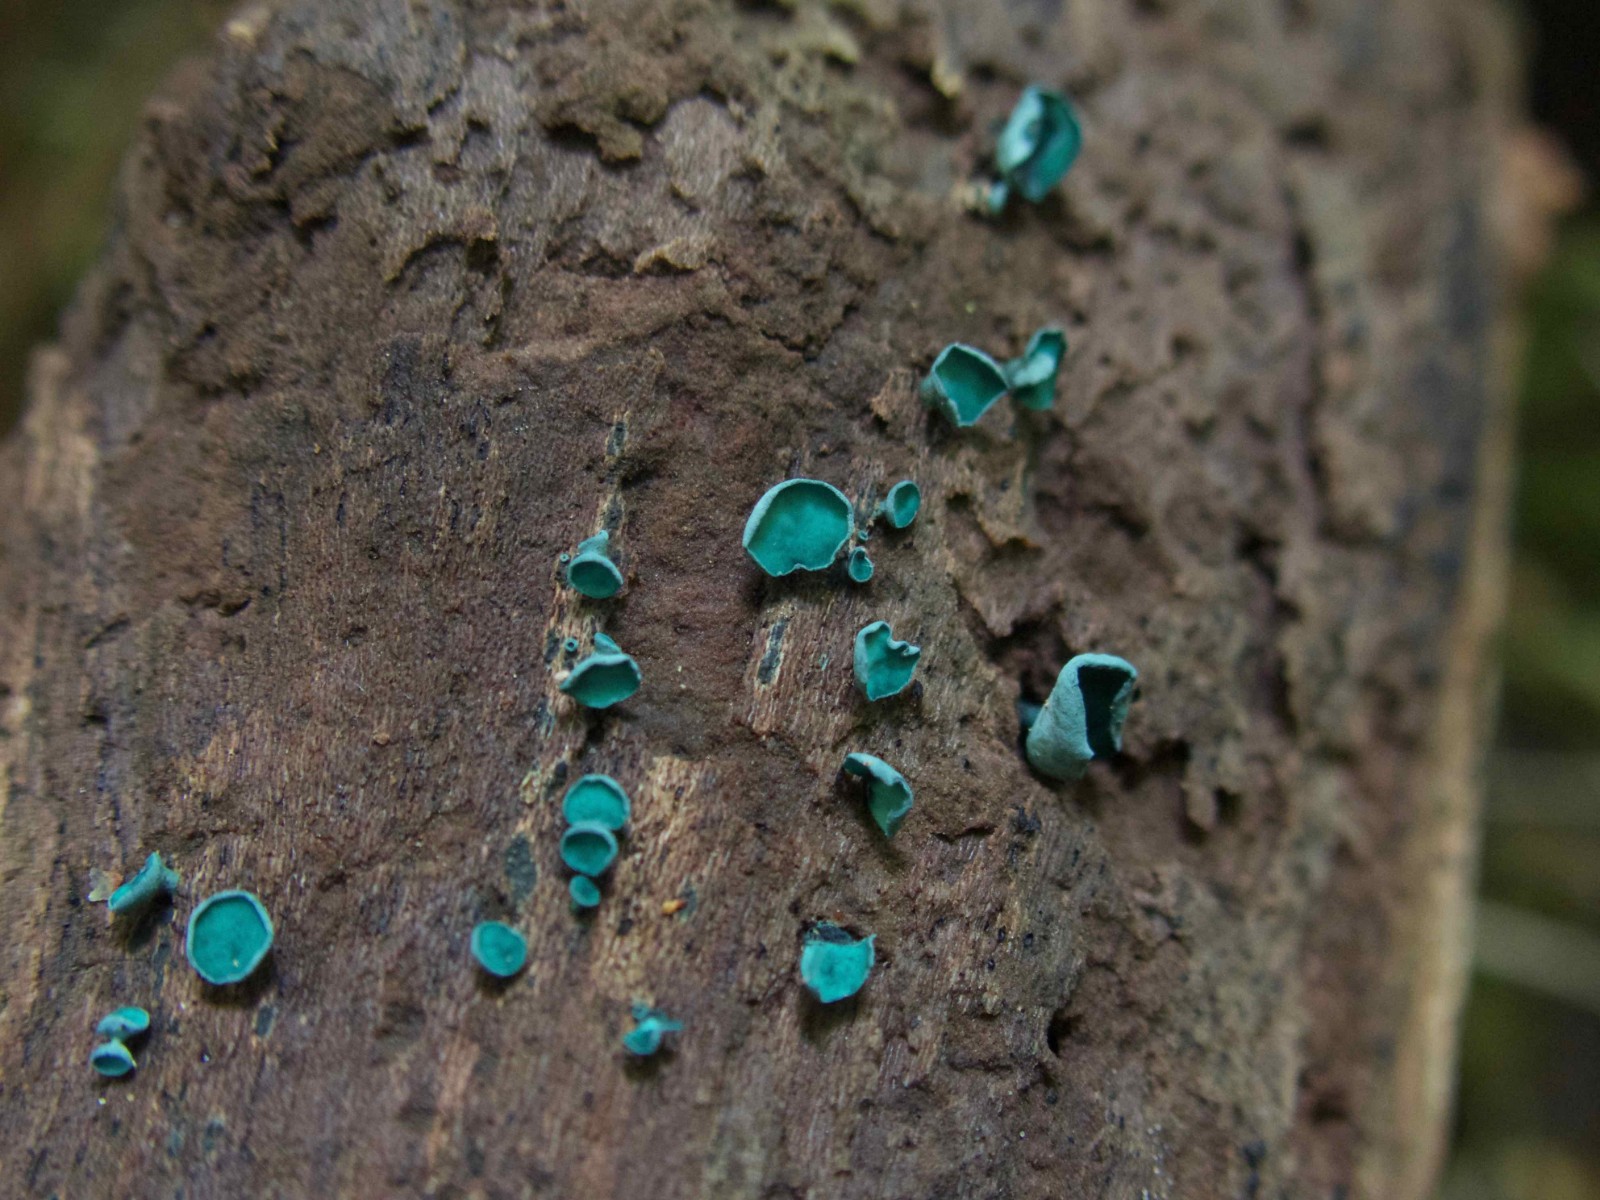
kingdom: Fungi
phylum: Ascomycota
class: Leotiomycetes
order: Helotiales
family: Chlorociboriaceae
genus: Chlorociboria
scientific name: Chlorociboria aeruginascens
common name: almindelig grønskive
